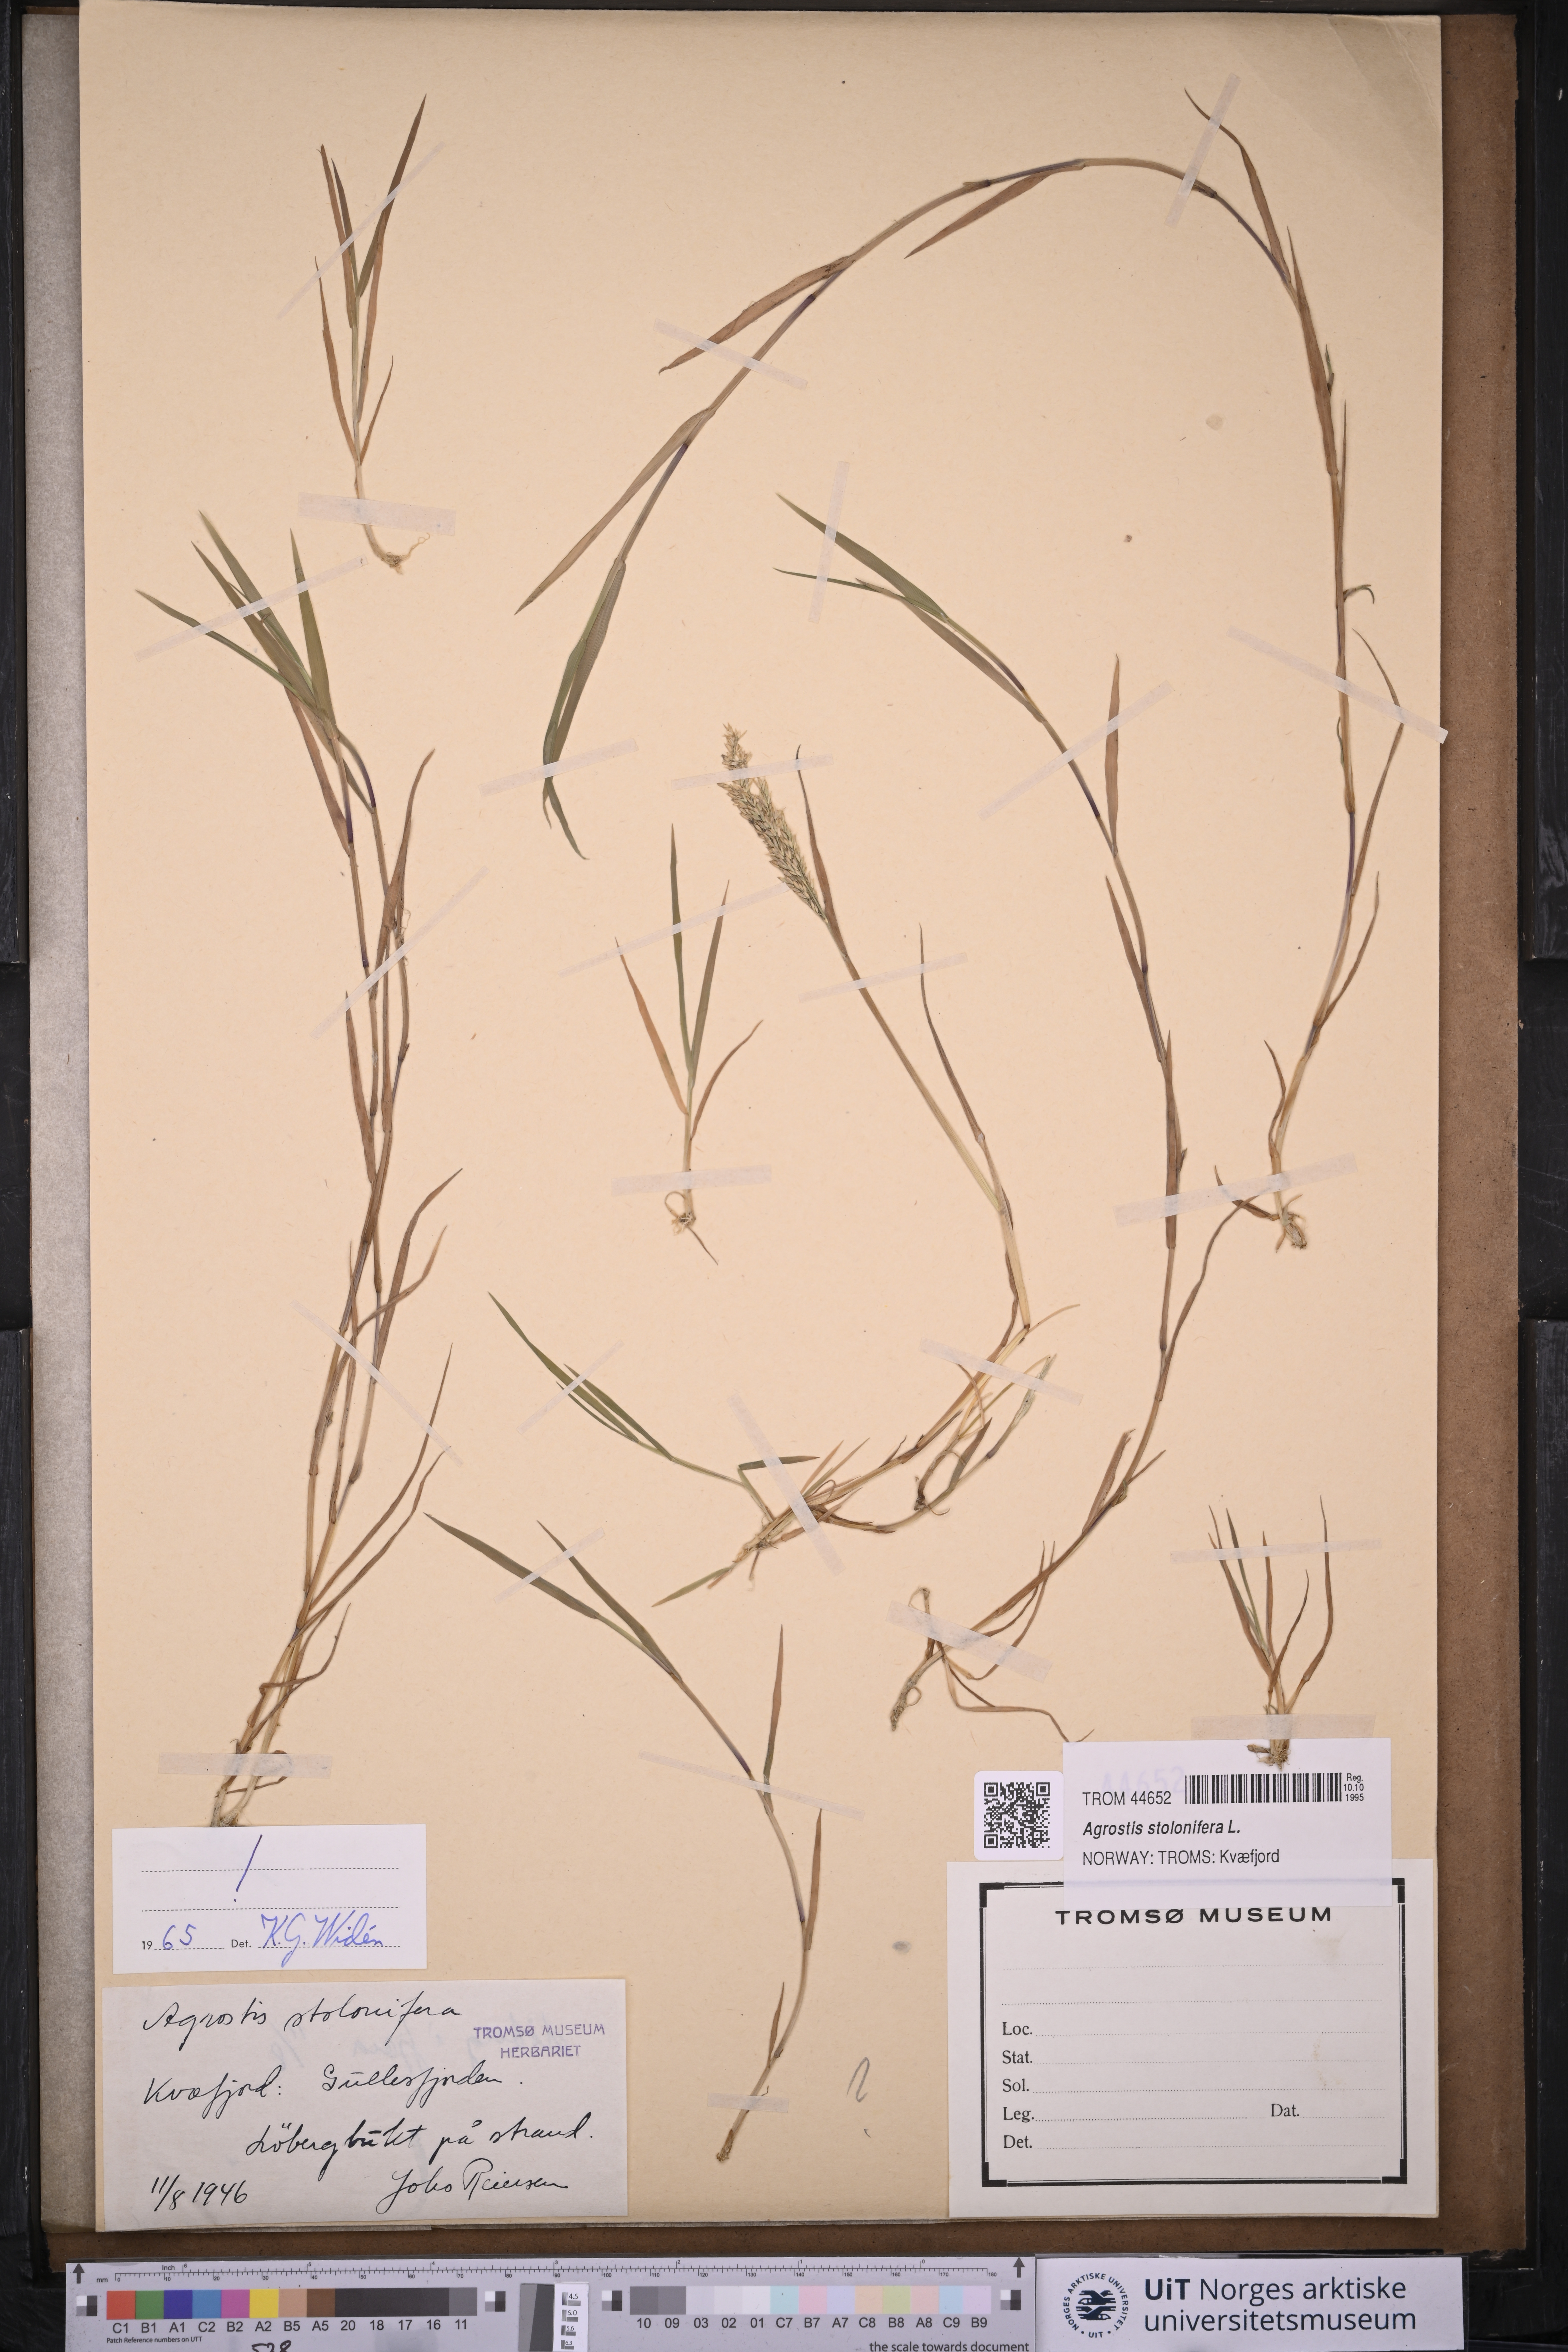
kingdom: Plantae
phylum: Tracheophyta
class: Liliopsida
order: Poales
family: Poaceae
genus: Agrostis
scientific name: Agrostis stolonifera
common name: Creeping bentgrass
